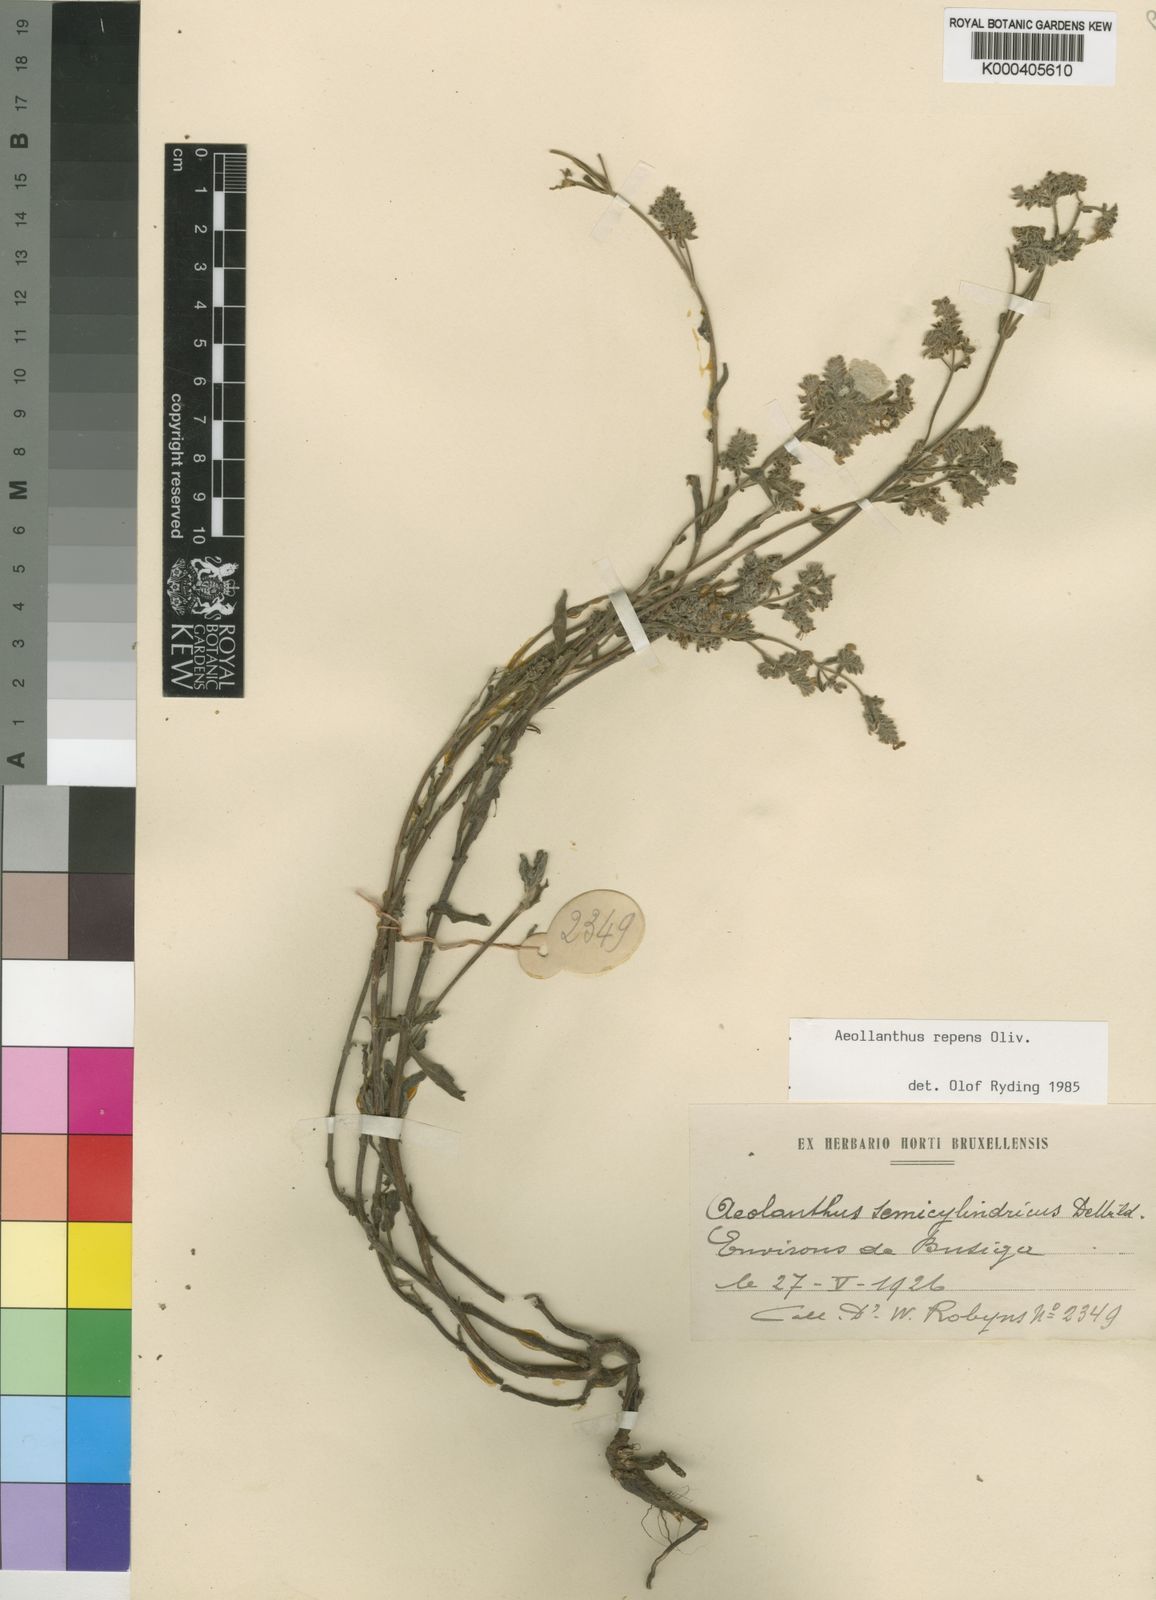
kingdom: Plantae
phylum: Tracheophyta
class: Magnoliopsida
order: Lamiales
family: Lamiaceae
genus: Aeollanthus
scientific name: Aeollanthus repens
